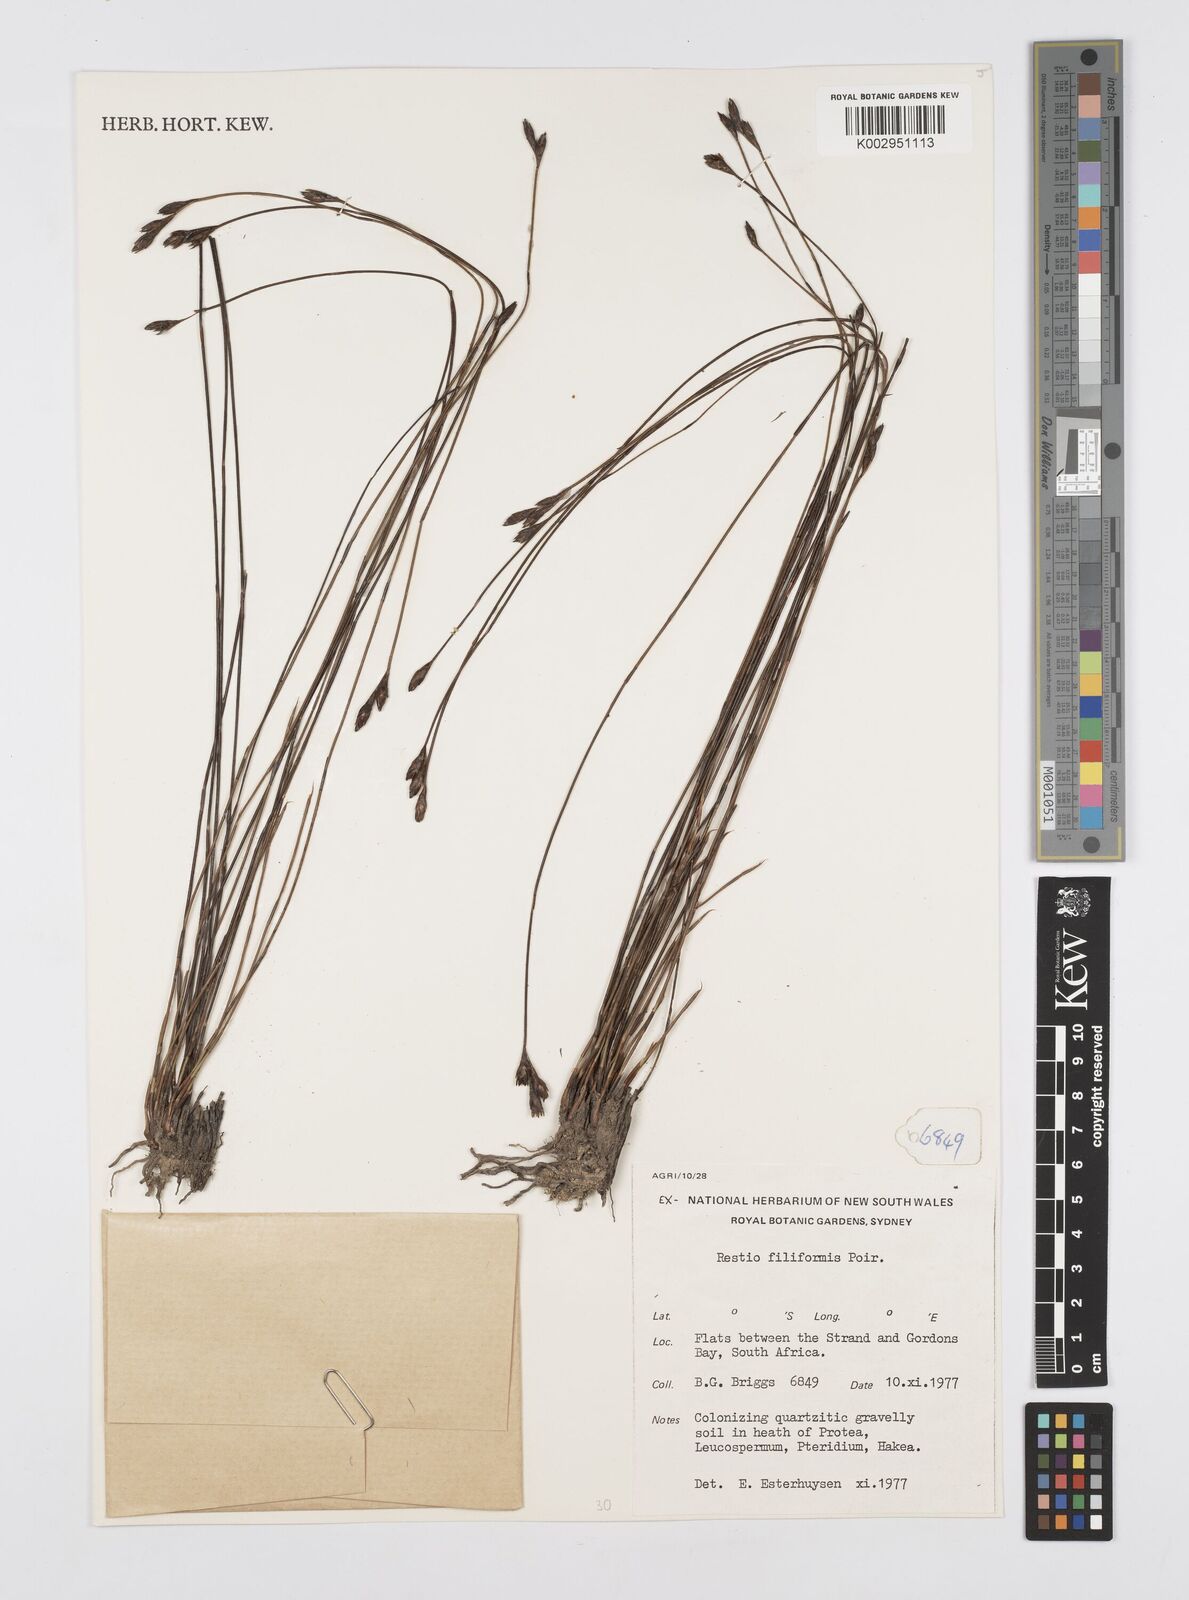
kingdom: Plantae
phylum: Tracheophyta
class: Liliopsida
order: Poales
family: Restionaceae
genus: Restio
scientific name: Restio filiformis
